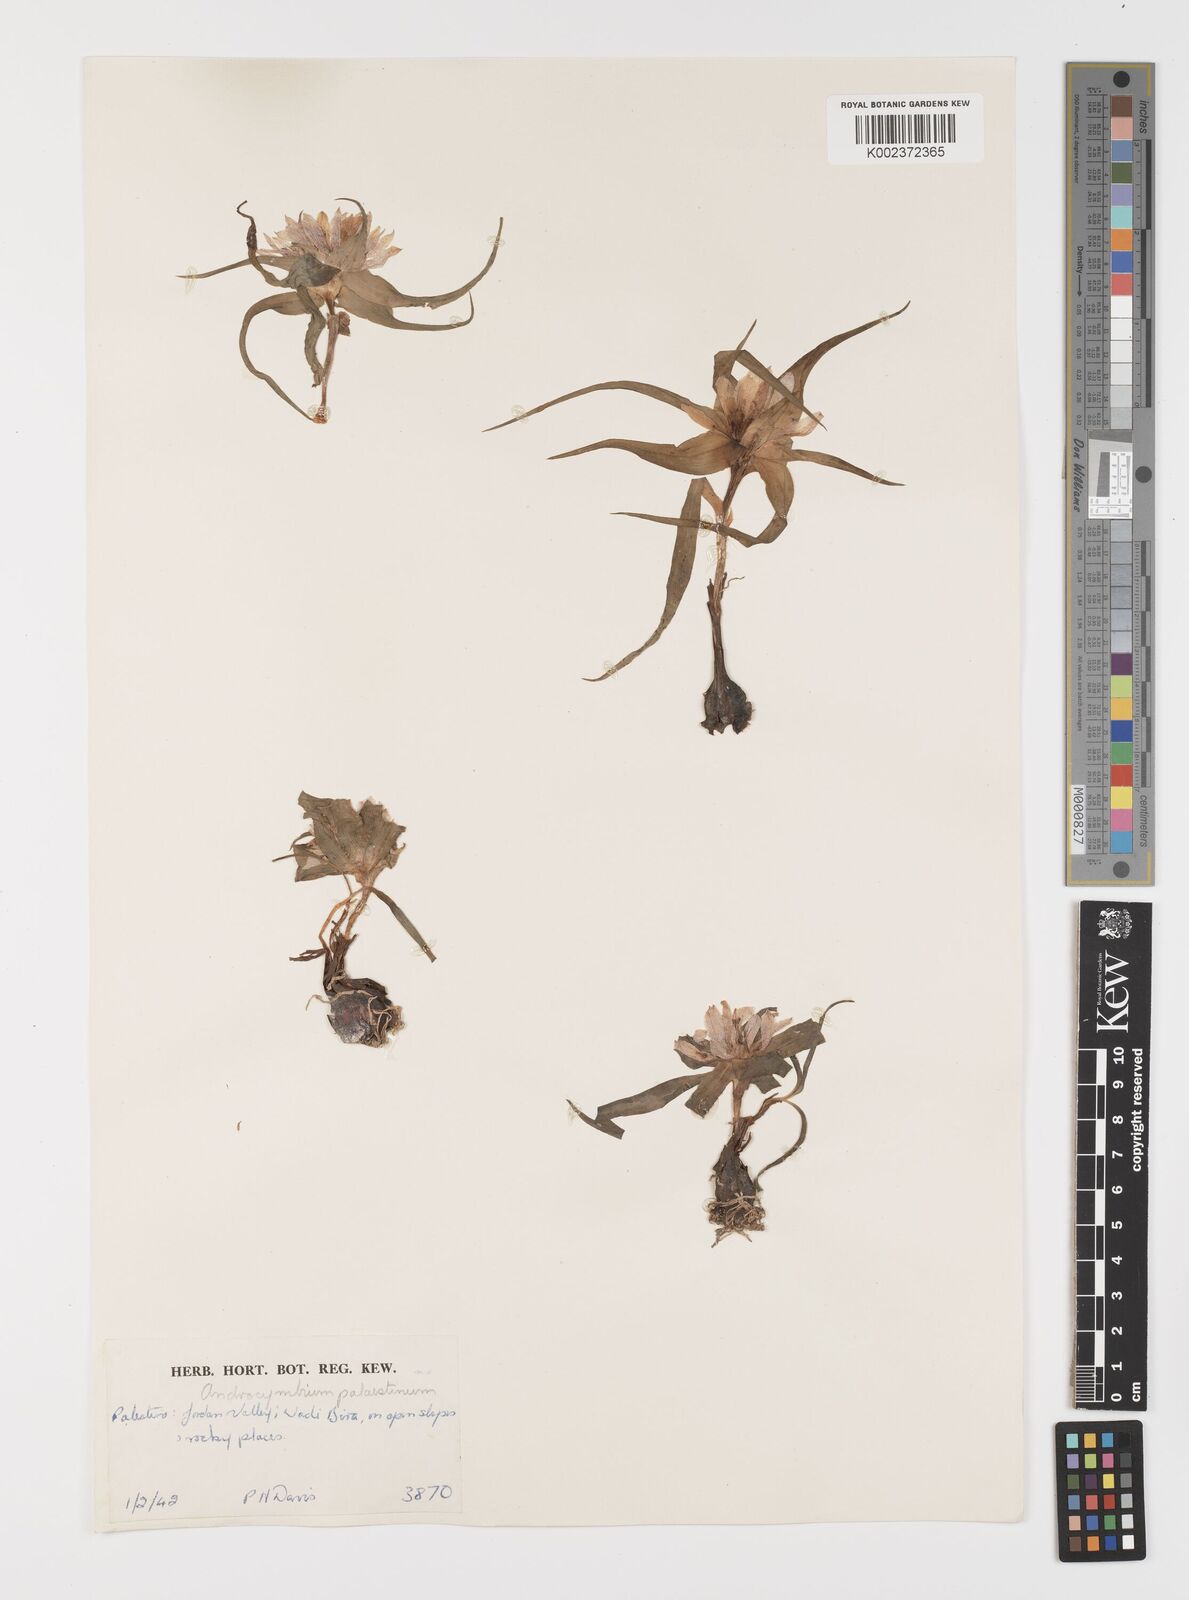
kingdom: Plantae
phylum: Tracheophyta
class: Liliopsida
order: Liliales
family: Colchicaceae
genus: Colchicum
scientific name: Colchicum palaestinum
